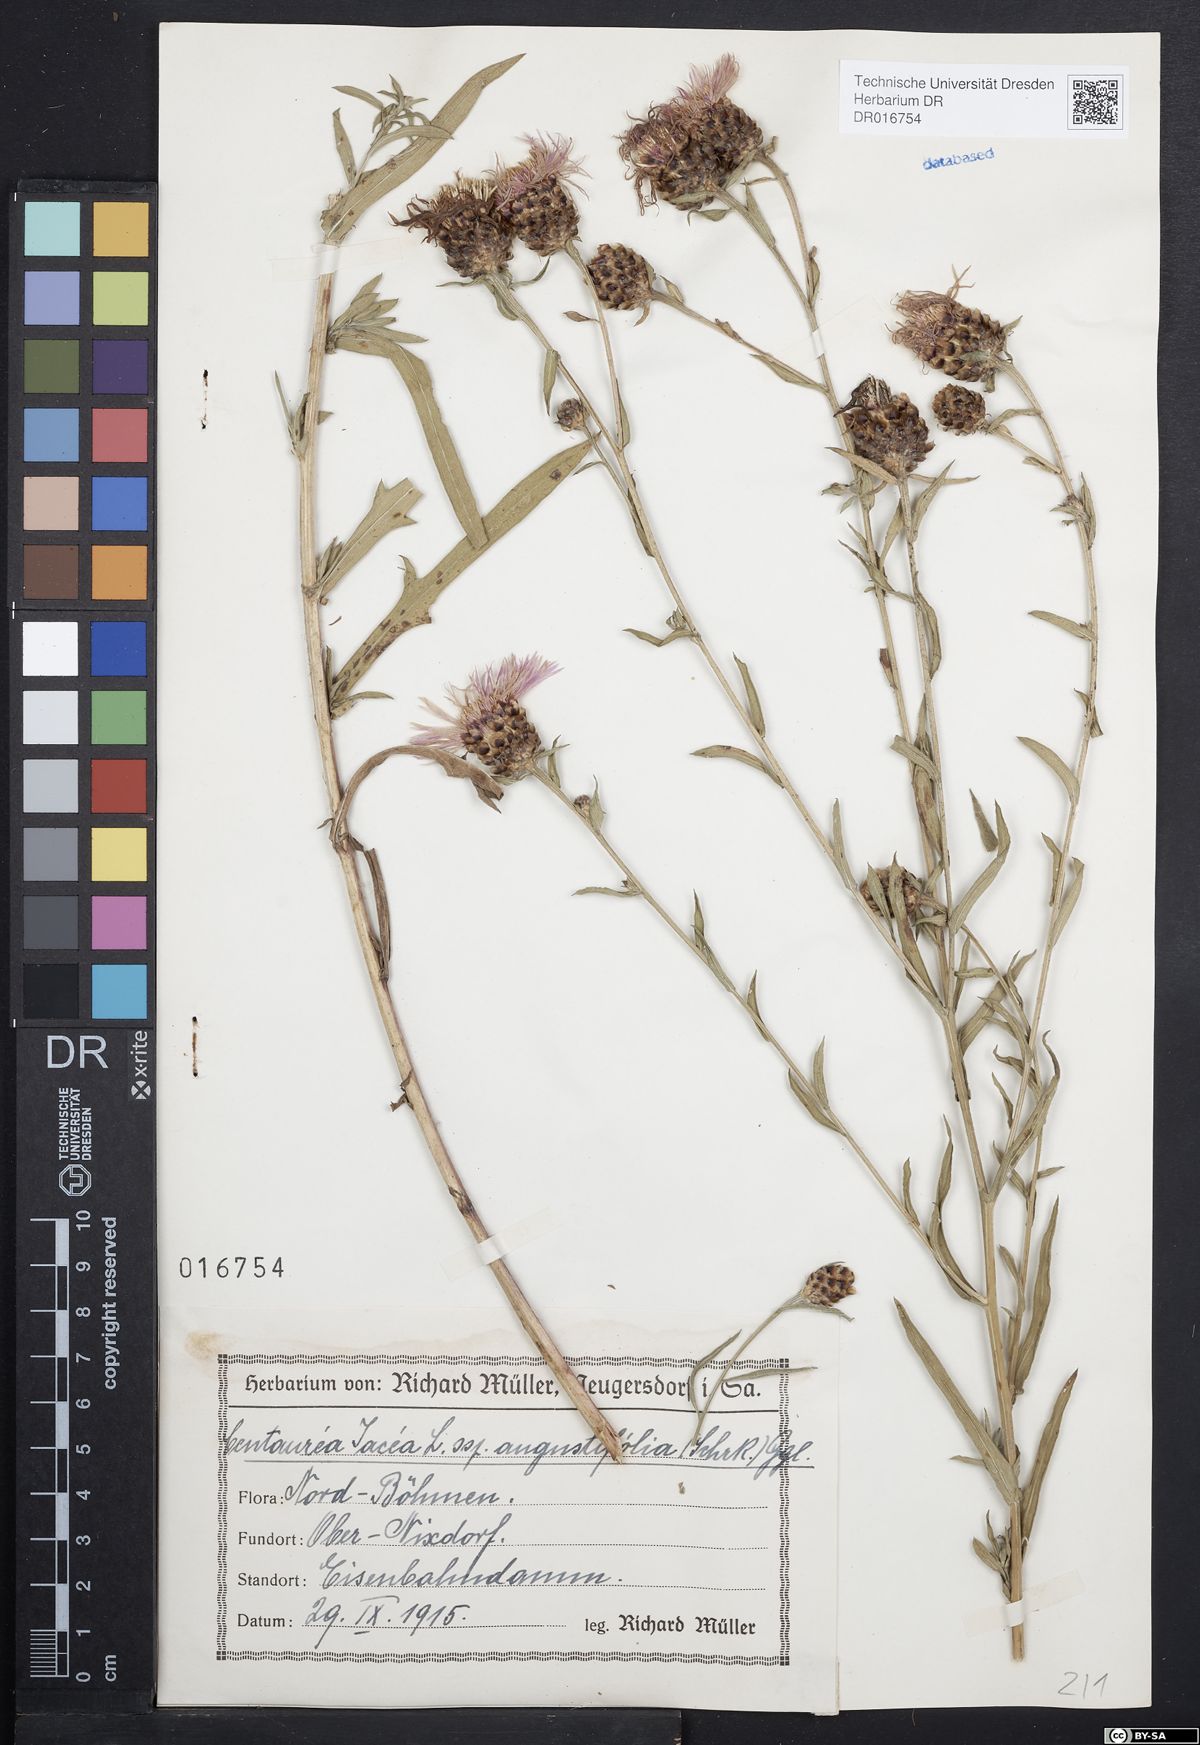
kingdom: Plantae
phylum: Tracheophyta
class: Magnoliopsida
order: Asterales
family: Asteraceae
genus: Centaurea
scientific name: Centaurea pannonica
